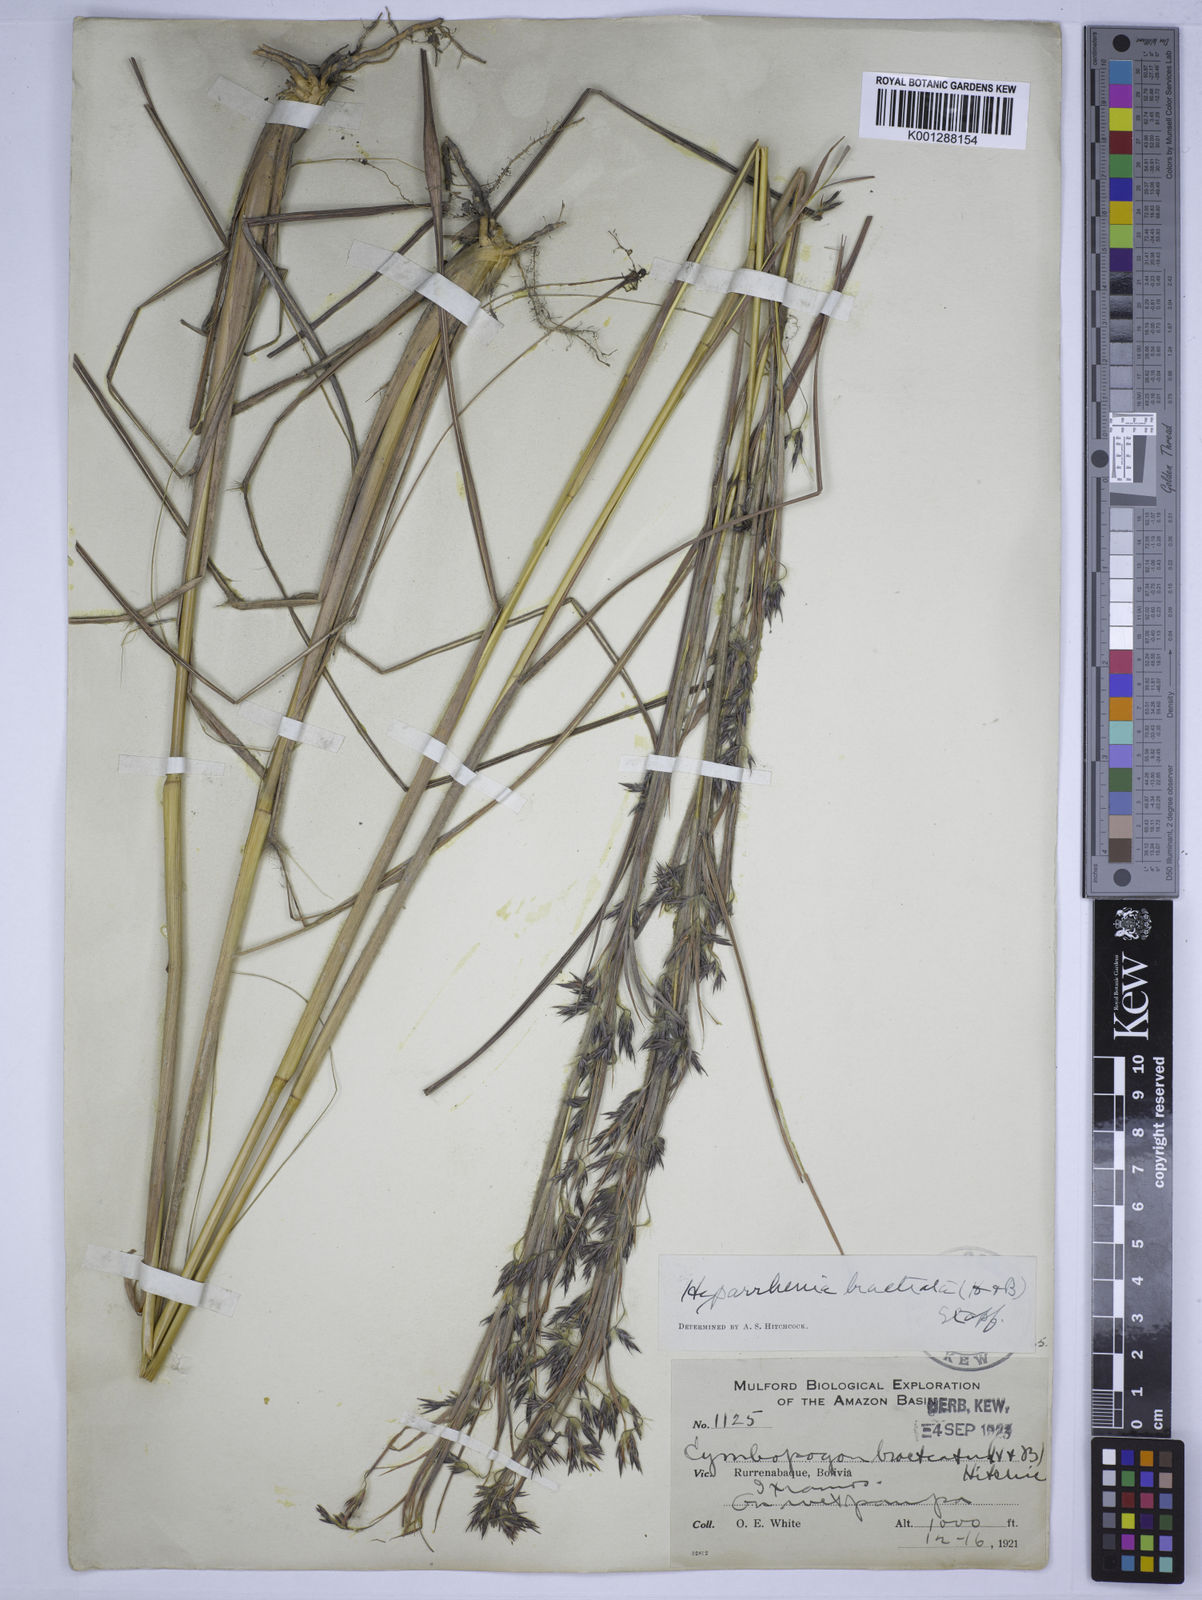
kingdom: Plantae
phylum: Tracheophyta
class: Liliopsida
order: Poales
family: Poaceae
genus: Hyparrhenia
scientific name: Hyparrhenia bracteata
